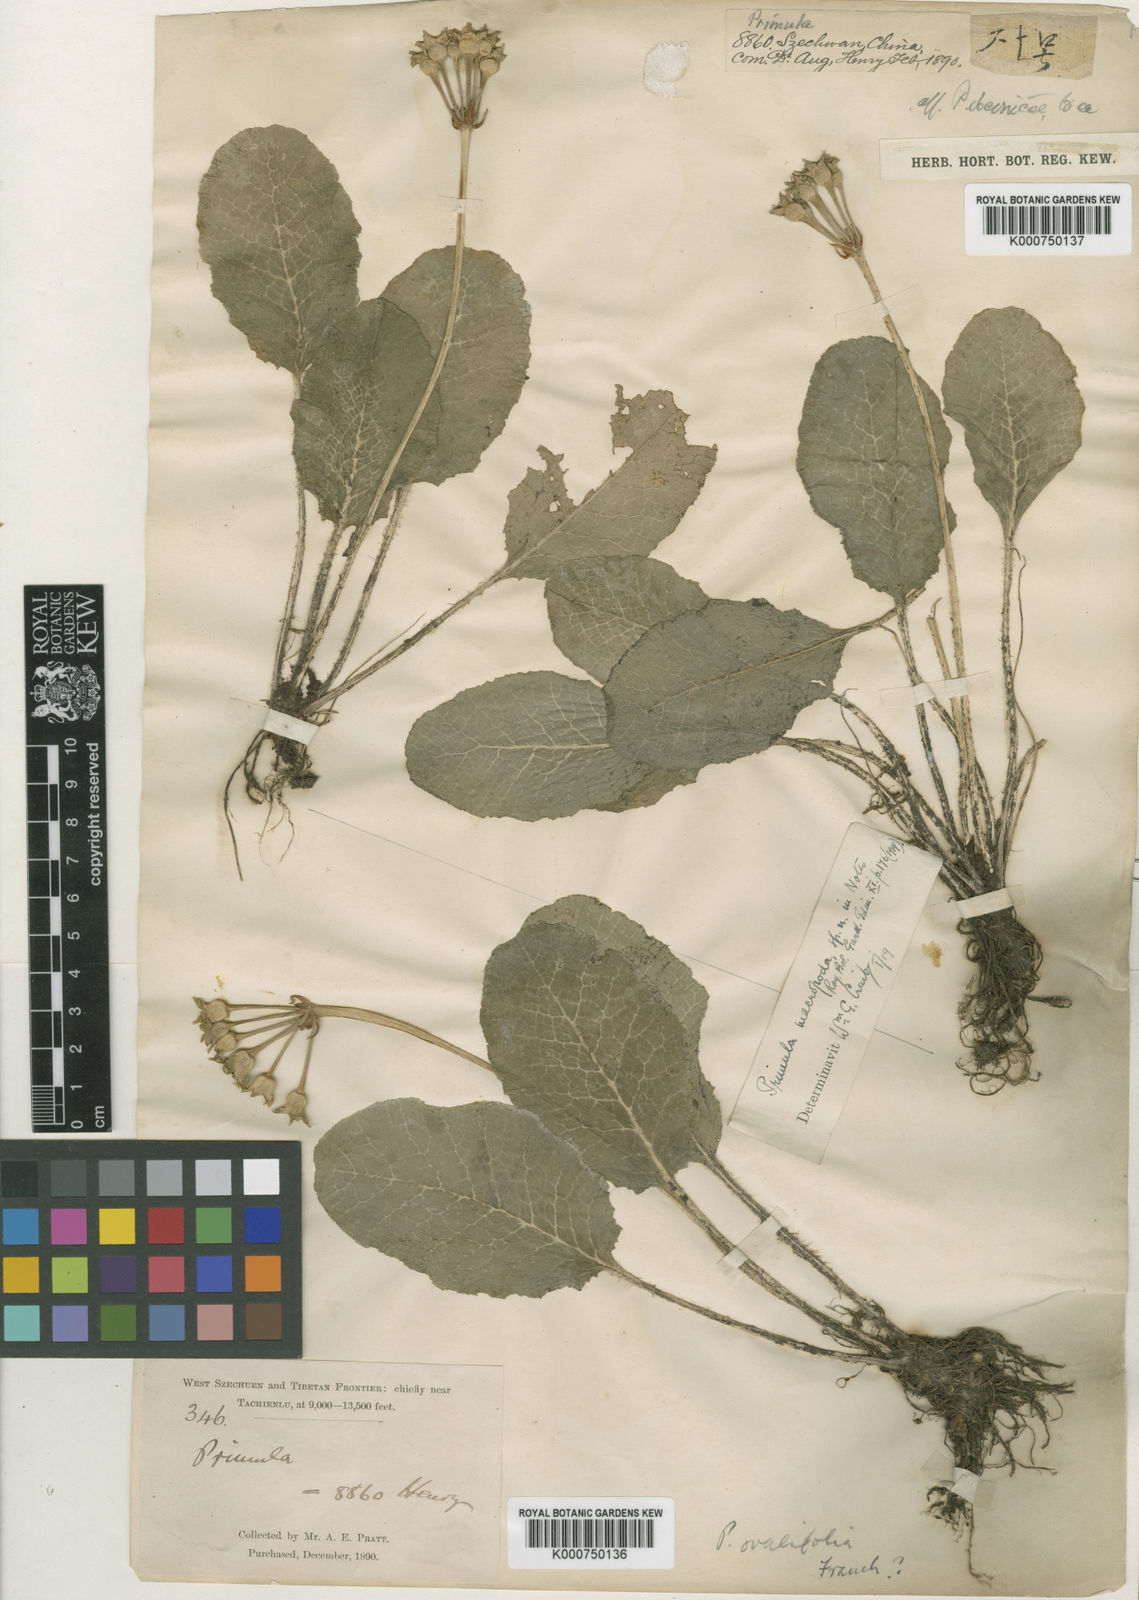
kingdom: Plantae
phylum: Tracheophyta
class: Magnoliopsida
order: Ericales
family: Primulaceae
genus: Primula
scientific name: Primula ovalifolia
